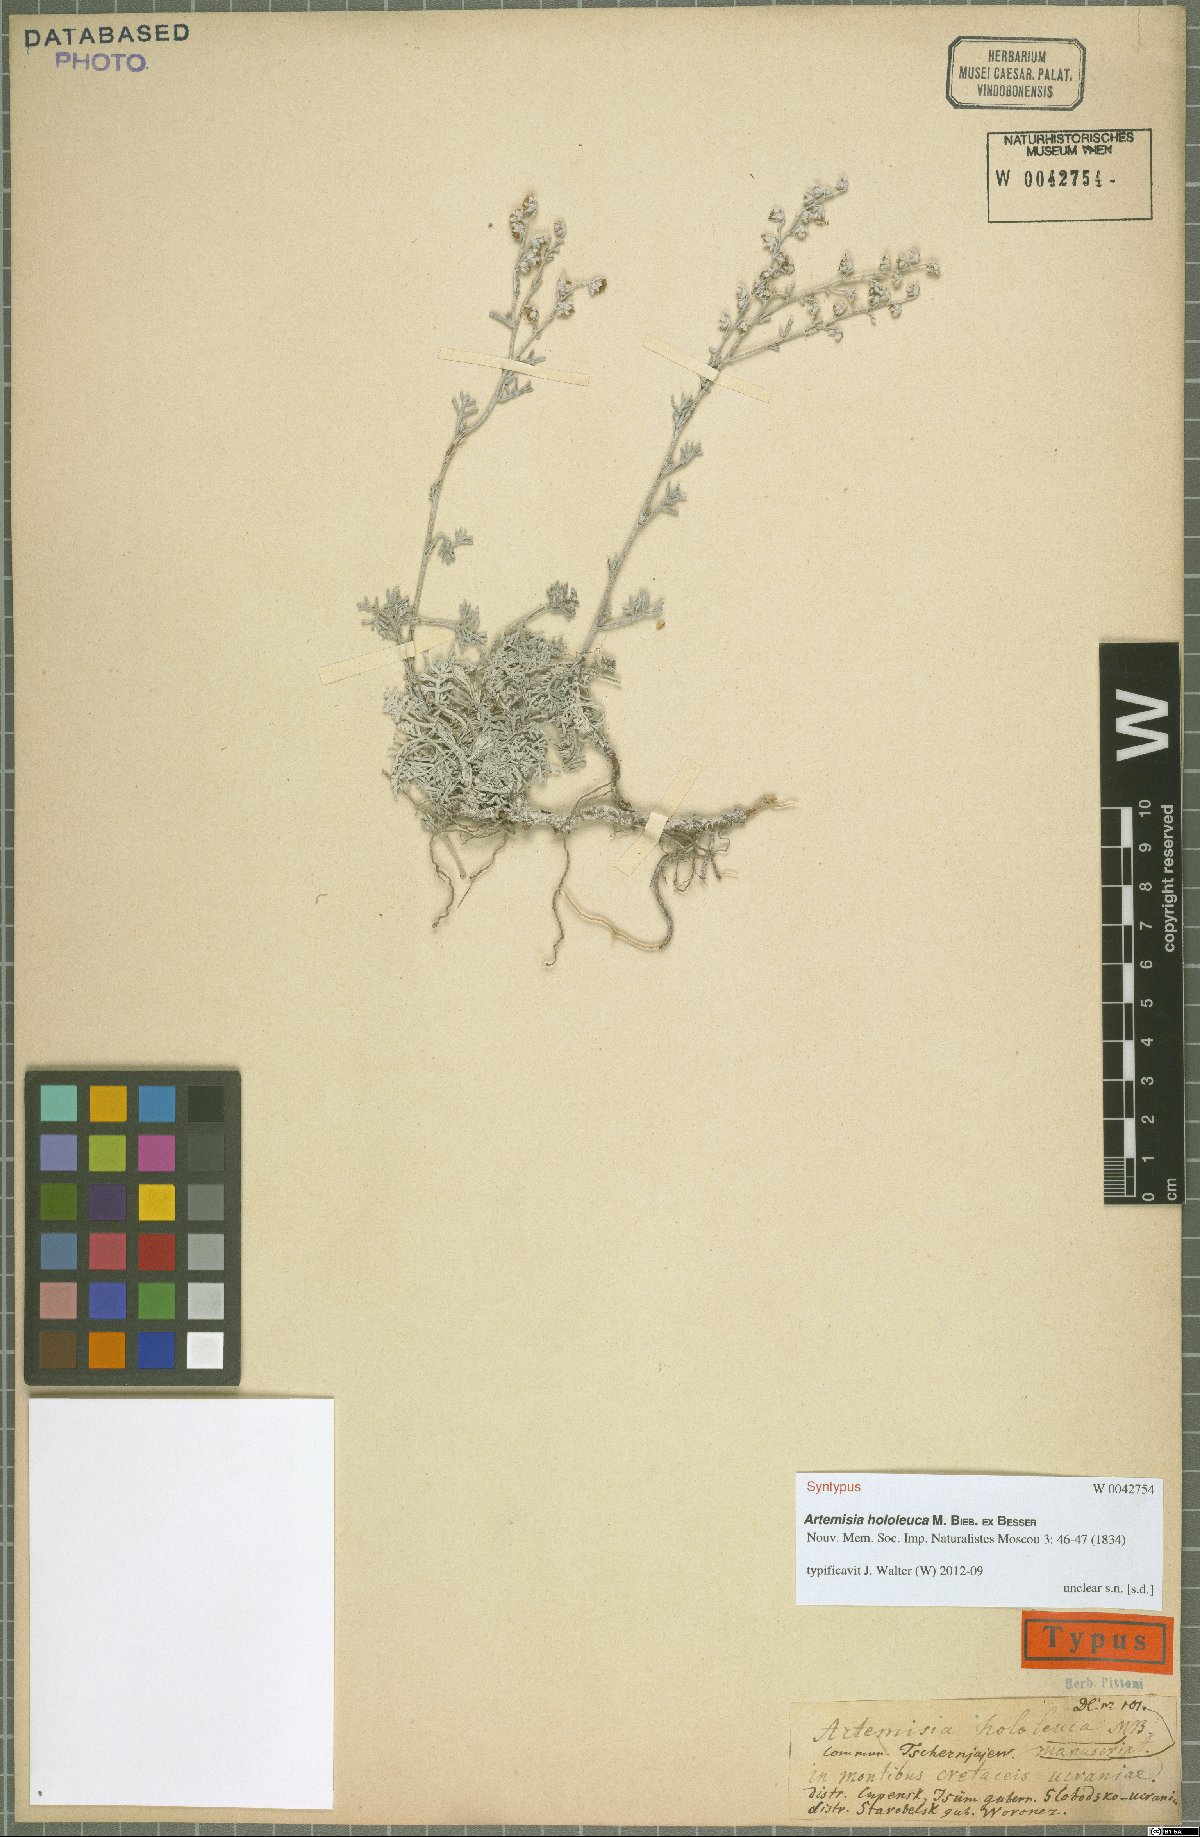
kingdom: Plantae
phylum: Tracheophyta
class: Magnoliopsida
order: Asterales
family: Asteraceae
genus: Artemisia
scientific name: Artemisia hololeuca
